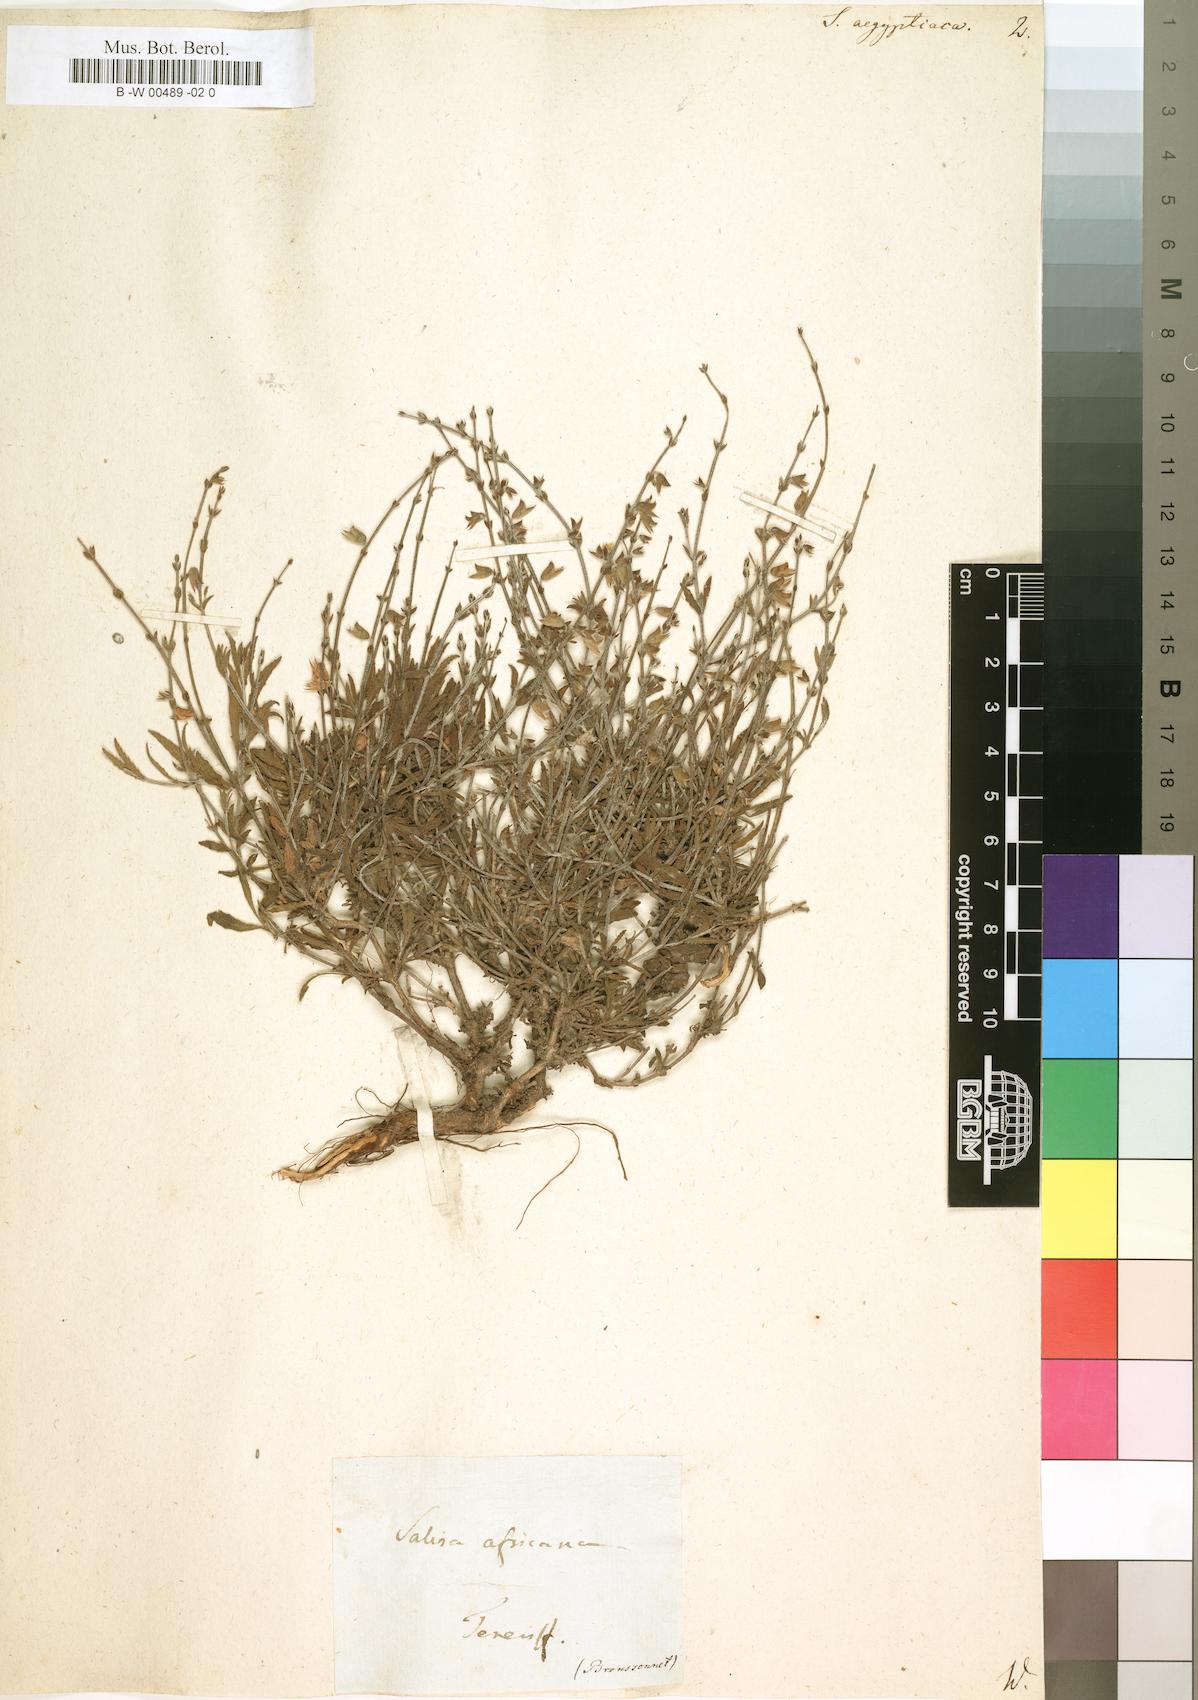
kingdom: Plantae
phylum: Tracheophyta
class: Magnoliopsida
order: Lamiales
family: Lamiaceae
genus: Salvia
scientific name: Salvia aegyptiaca
